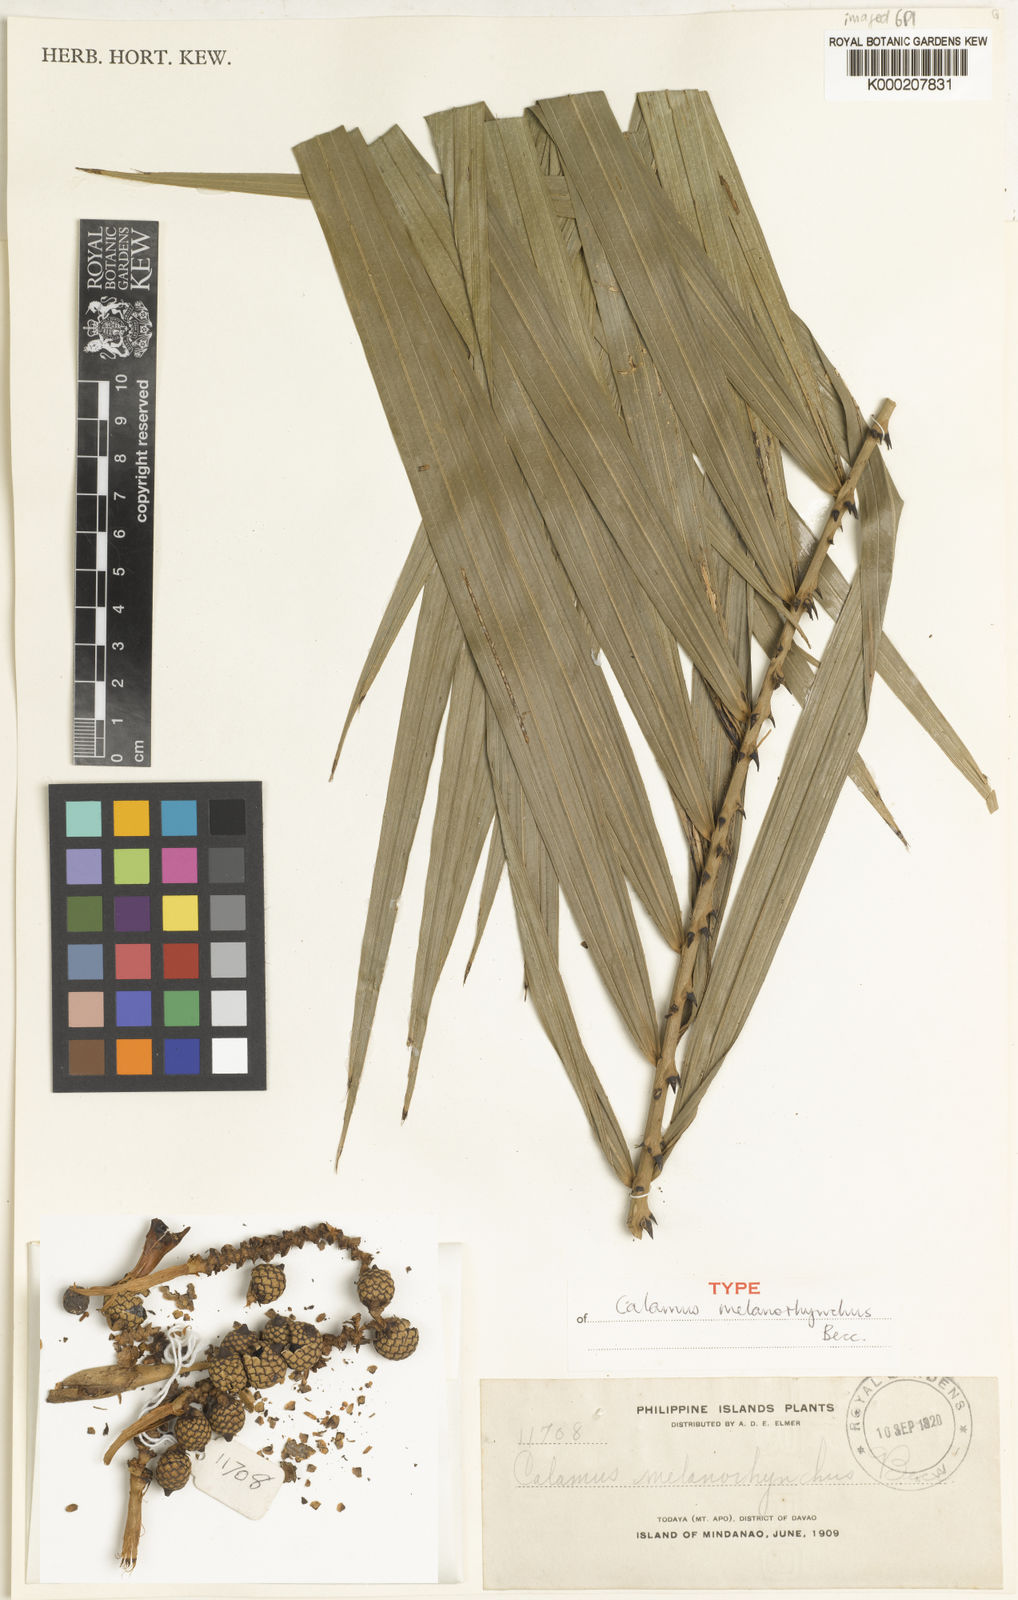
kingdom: Plantae
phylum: Tracheophyta
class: Liliopsida
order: Arecales
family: Arecaceae
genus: Calamus
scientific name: Calamus melanorhynchus
